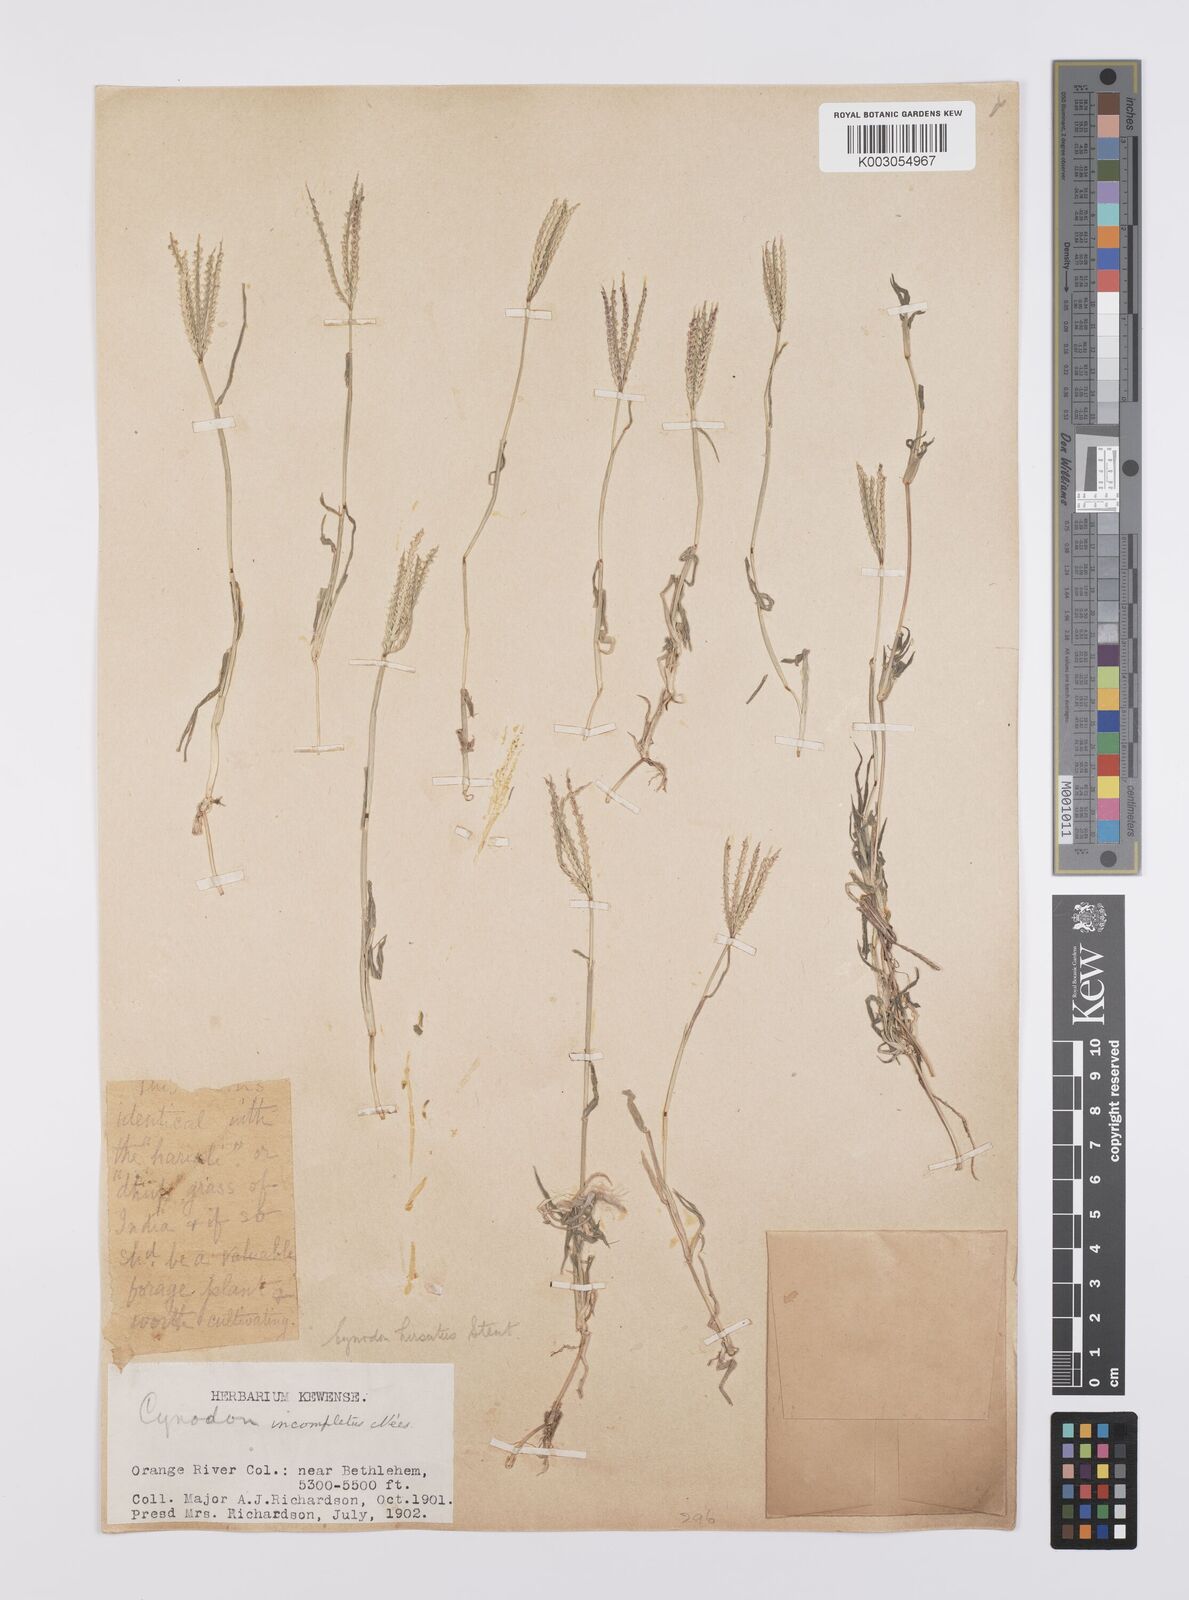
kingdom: Plantae
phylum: Tracheophyta
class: Liliopsida
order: Poales
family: Poaceae
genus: Cynodon
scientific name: Cynodon incompletus
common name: African bermuda-grass
